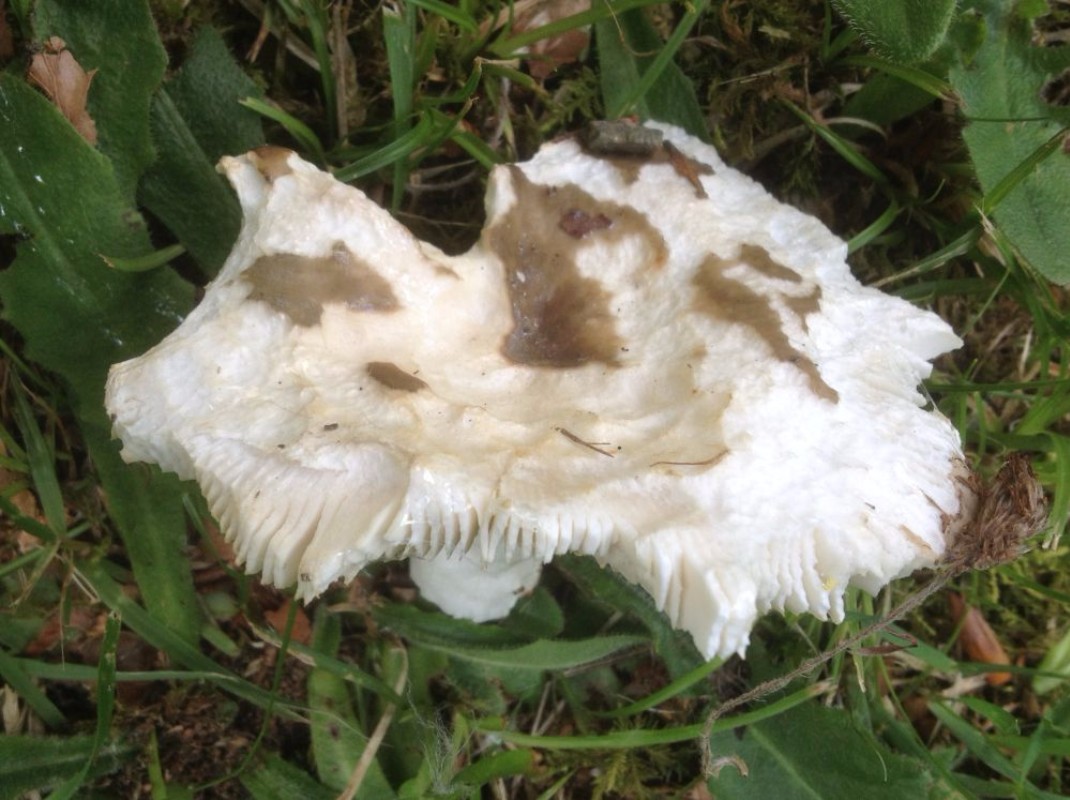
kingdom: Fungi
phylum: Basidiomycota
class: Agaricomycetes
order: Russulales
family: Russulaceae
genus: Russula
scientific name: Russula
